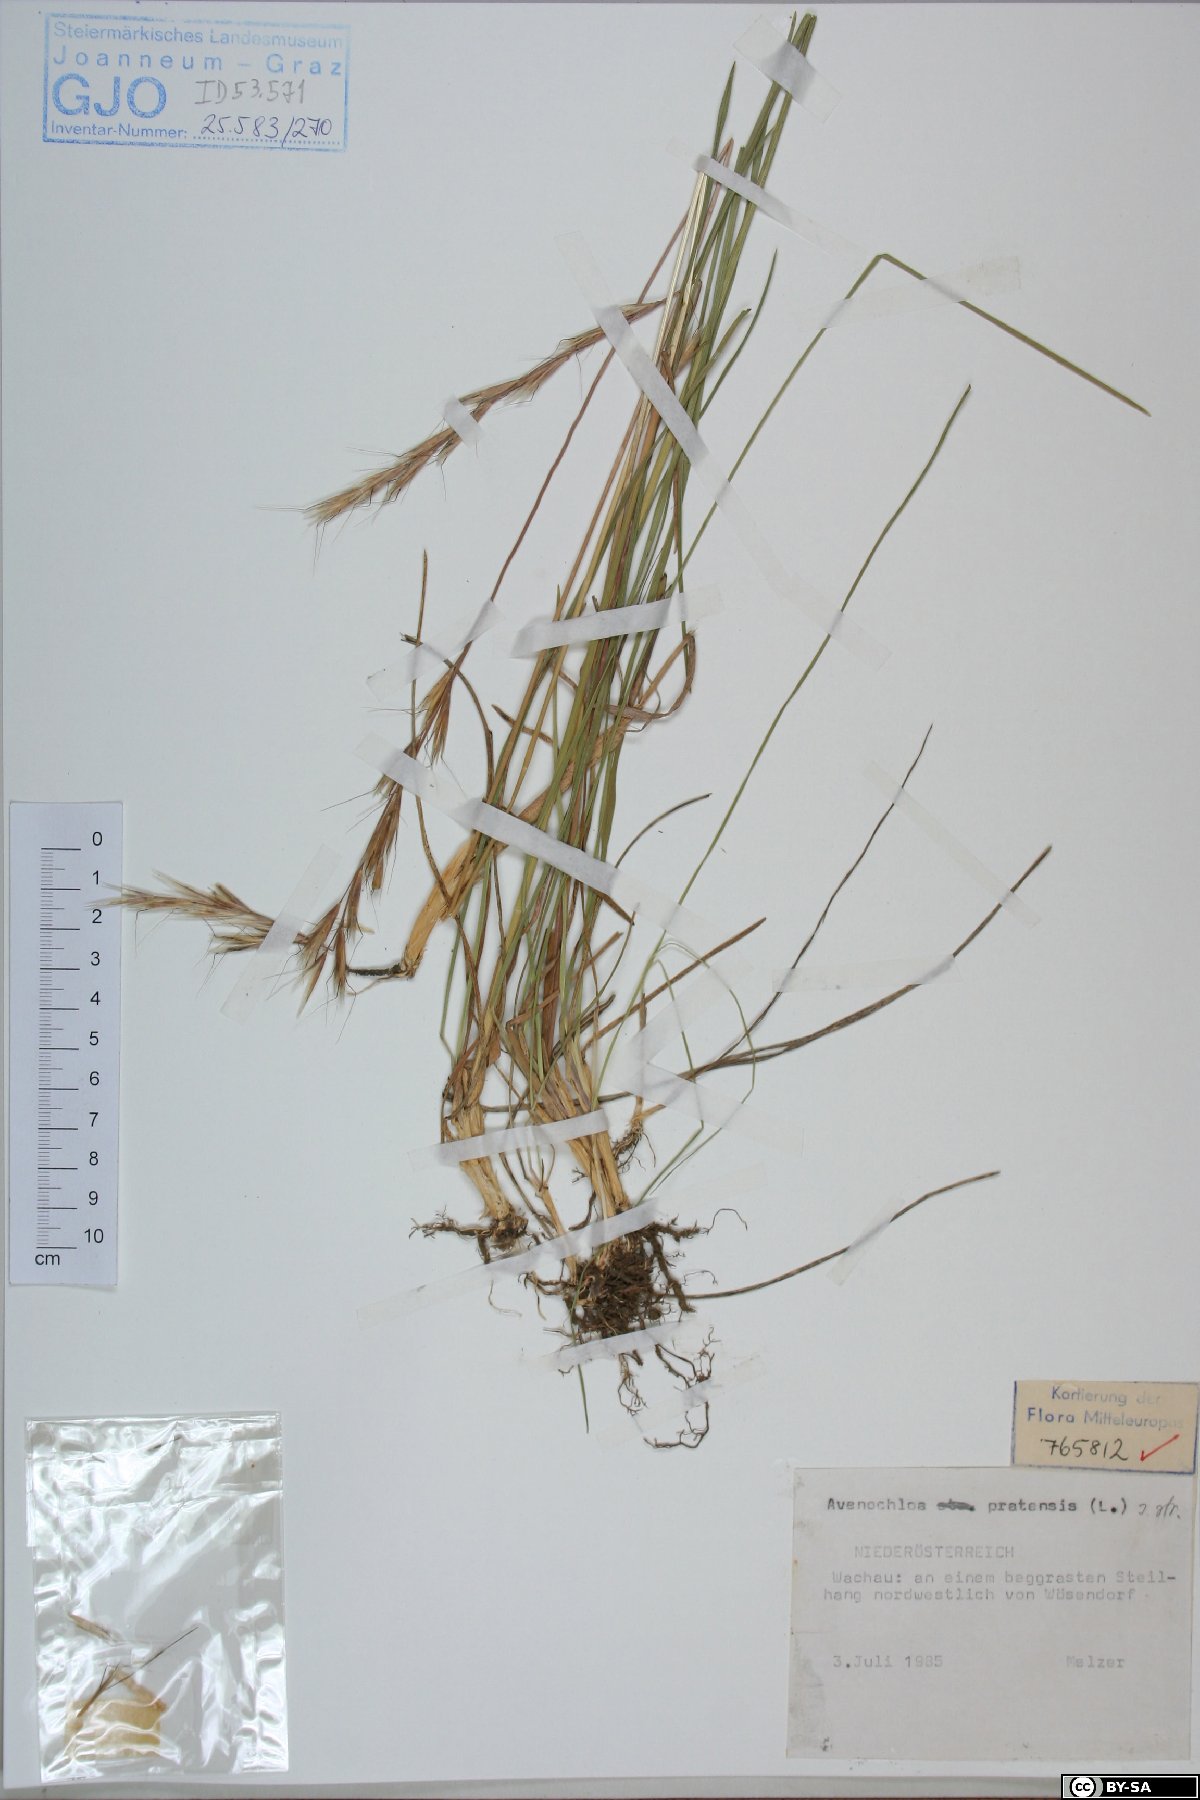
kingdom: Plantae
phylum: Tracheophyta
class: Liliopsida
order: Poales
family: Poaceae
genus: Helictochloa
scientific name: Helictochloa pratensis
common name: Meadow oat grass
